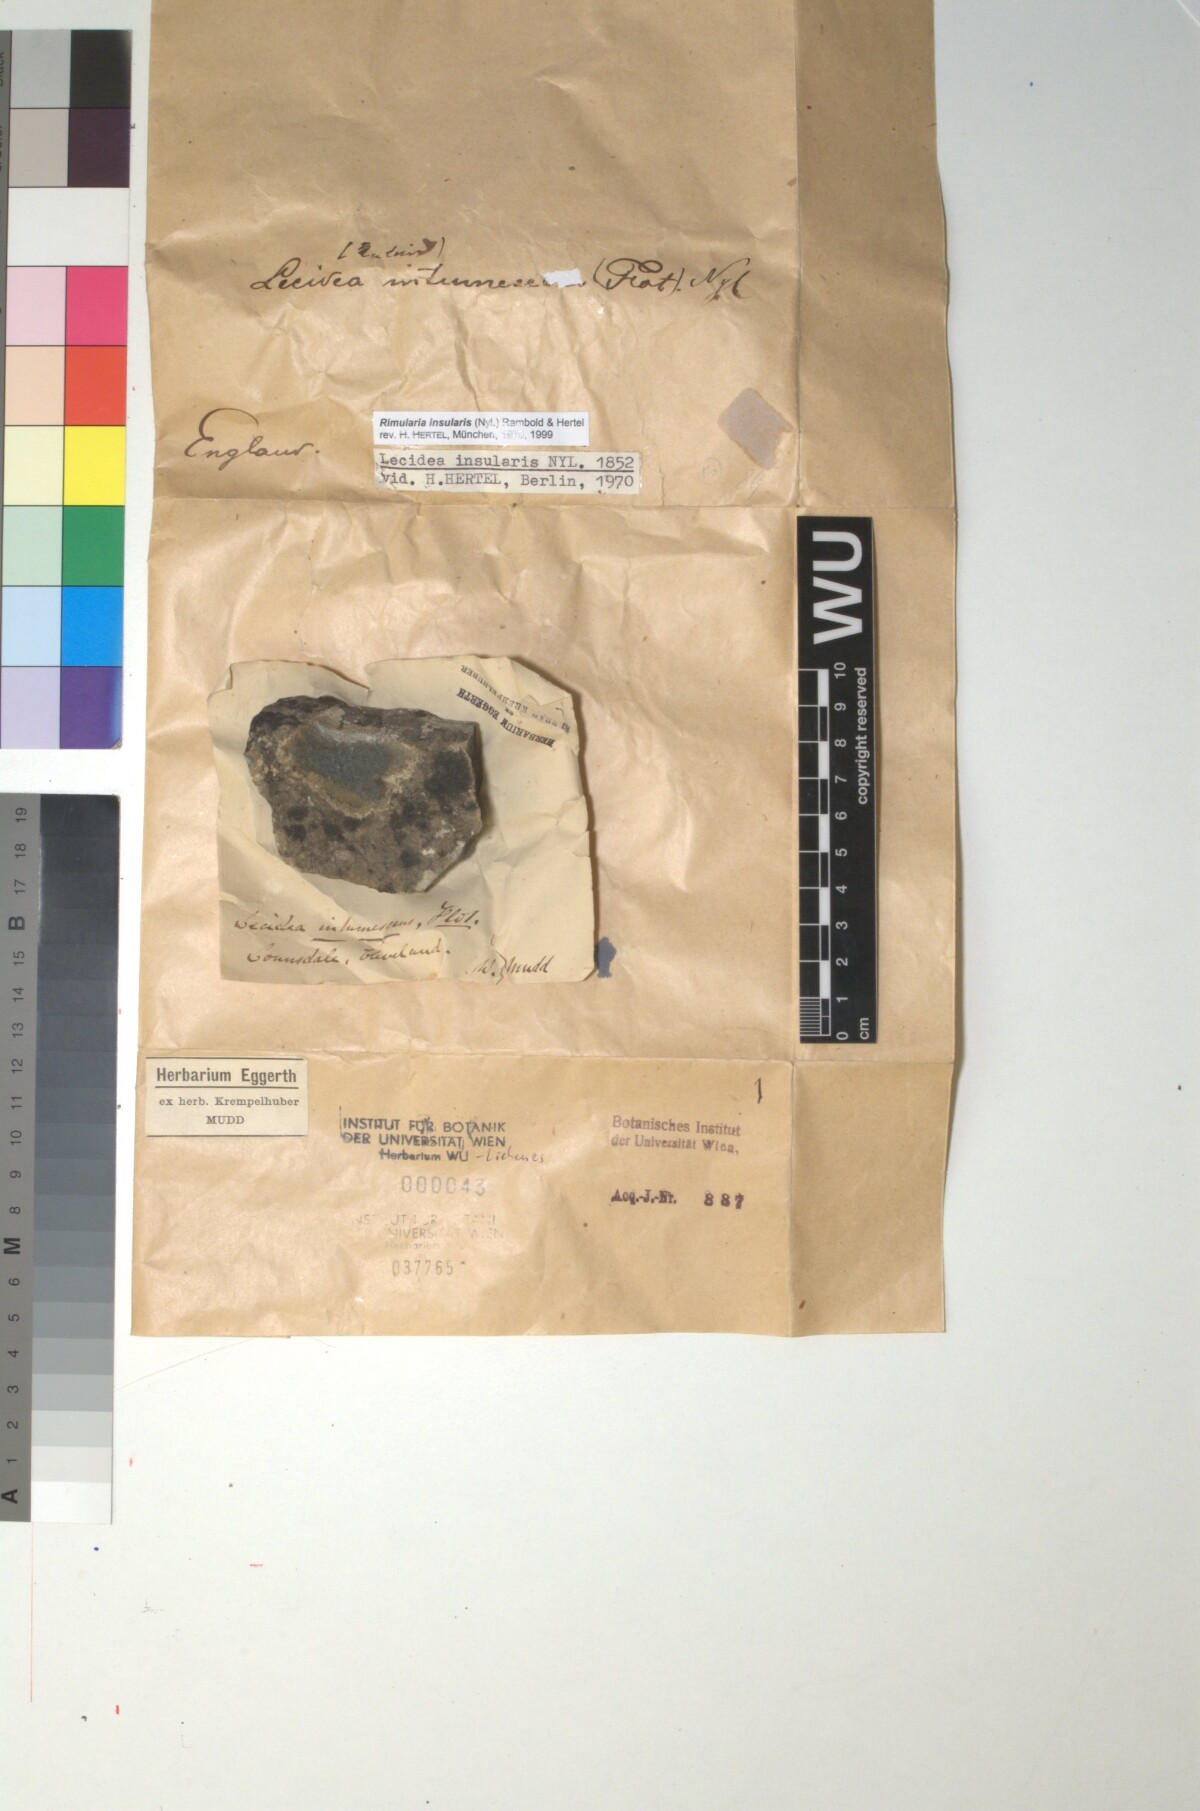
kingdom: Fungi
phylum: Ascomycota
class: Lecanoromycetes
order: Baeomycetales
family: Trapeliaceae
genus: Lambiella
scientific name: Lambiella insularis
